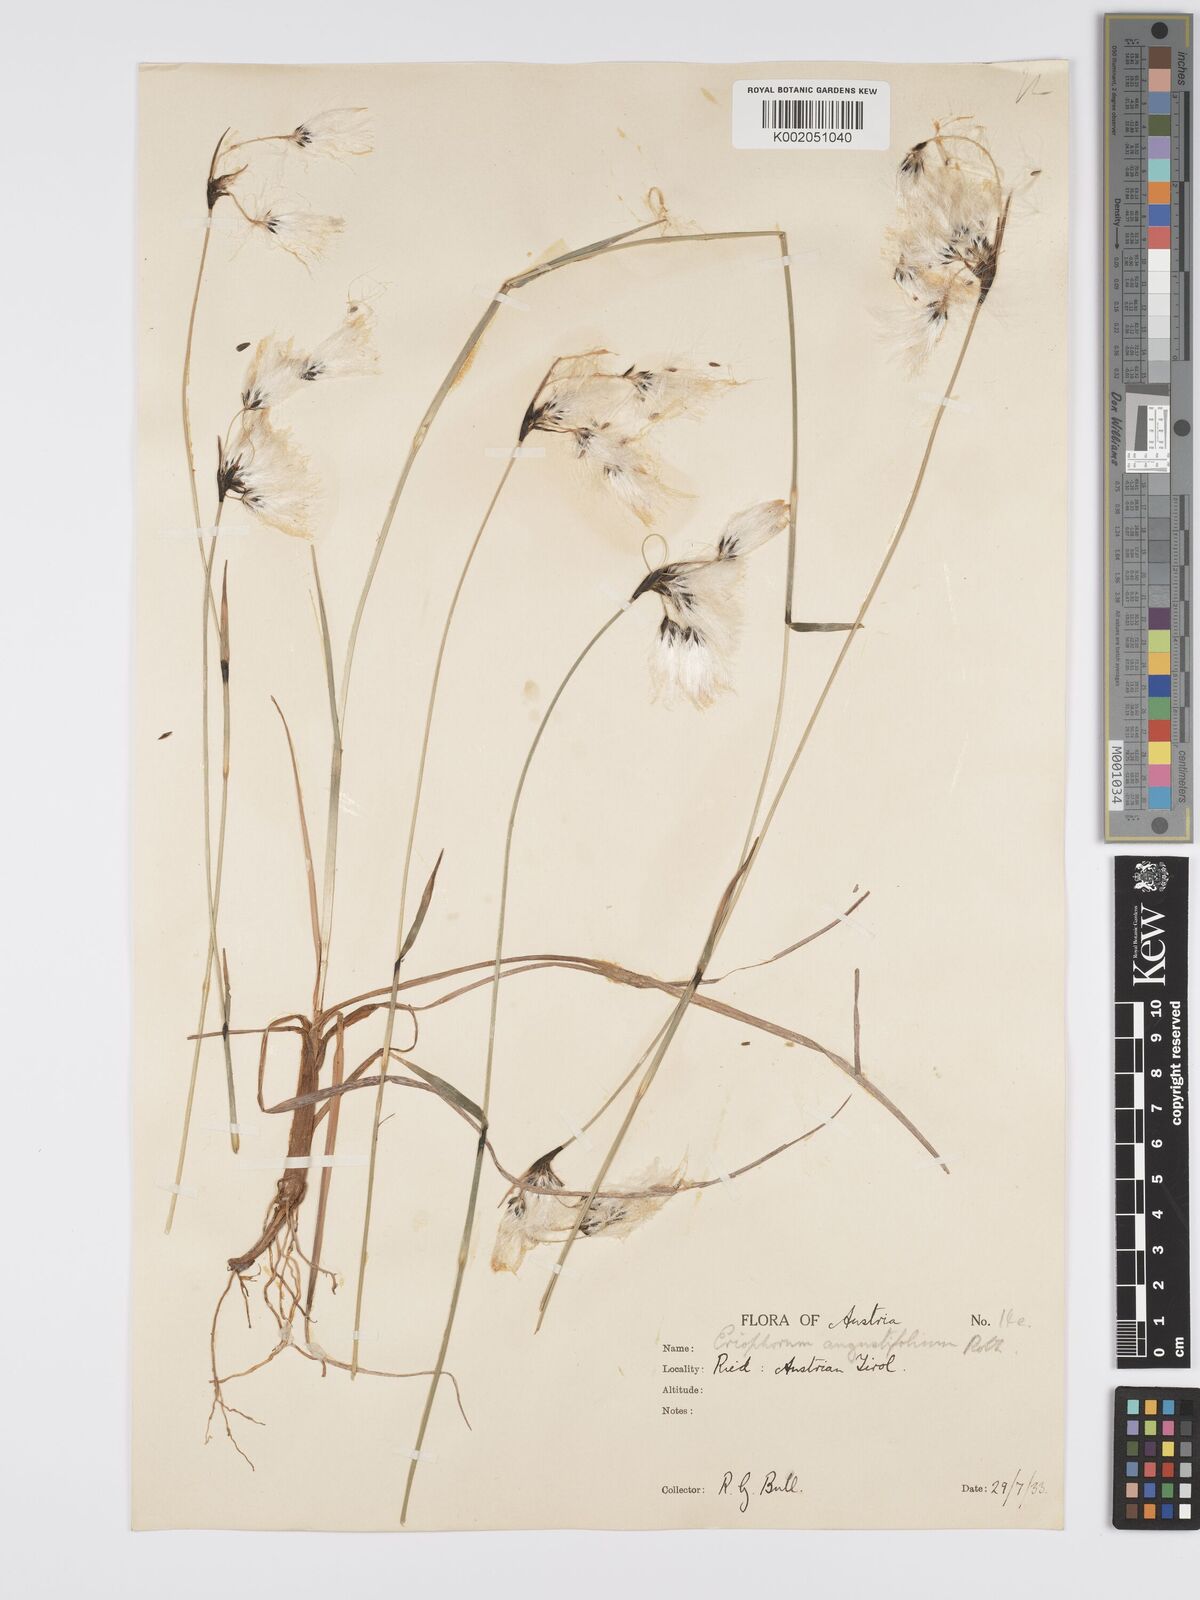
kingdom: Plantae
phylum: Tracheophyta
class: Liliopsida
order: Poales
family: Cyperaceae
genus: Eriophorum
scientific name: Eriophorum angustifolium
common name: Common cottongrass
